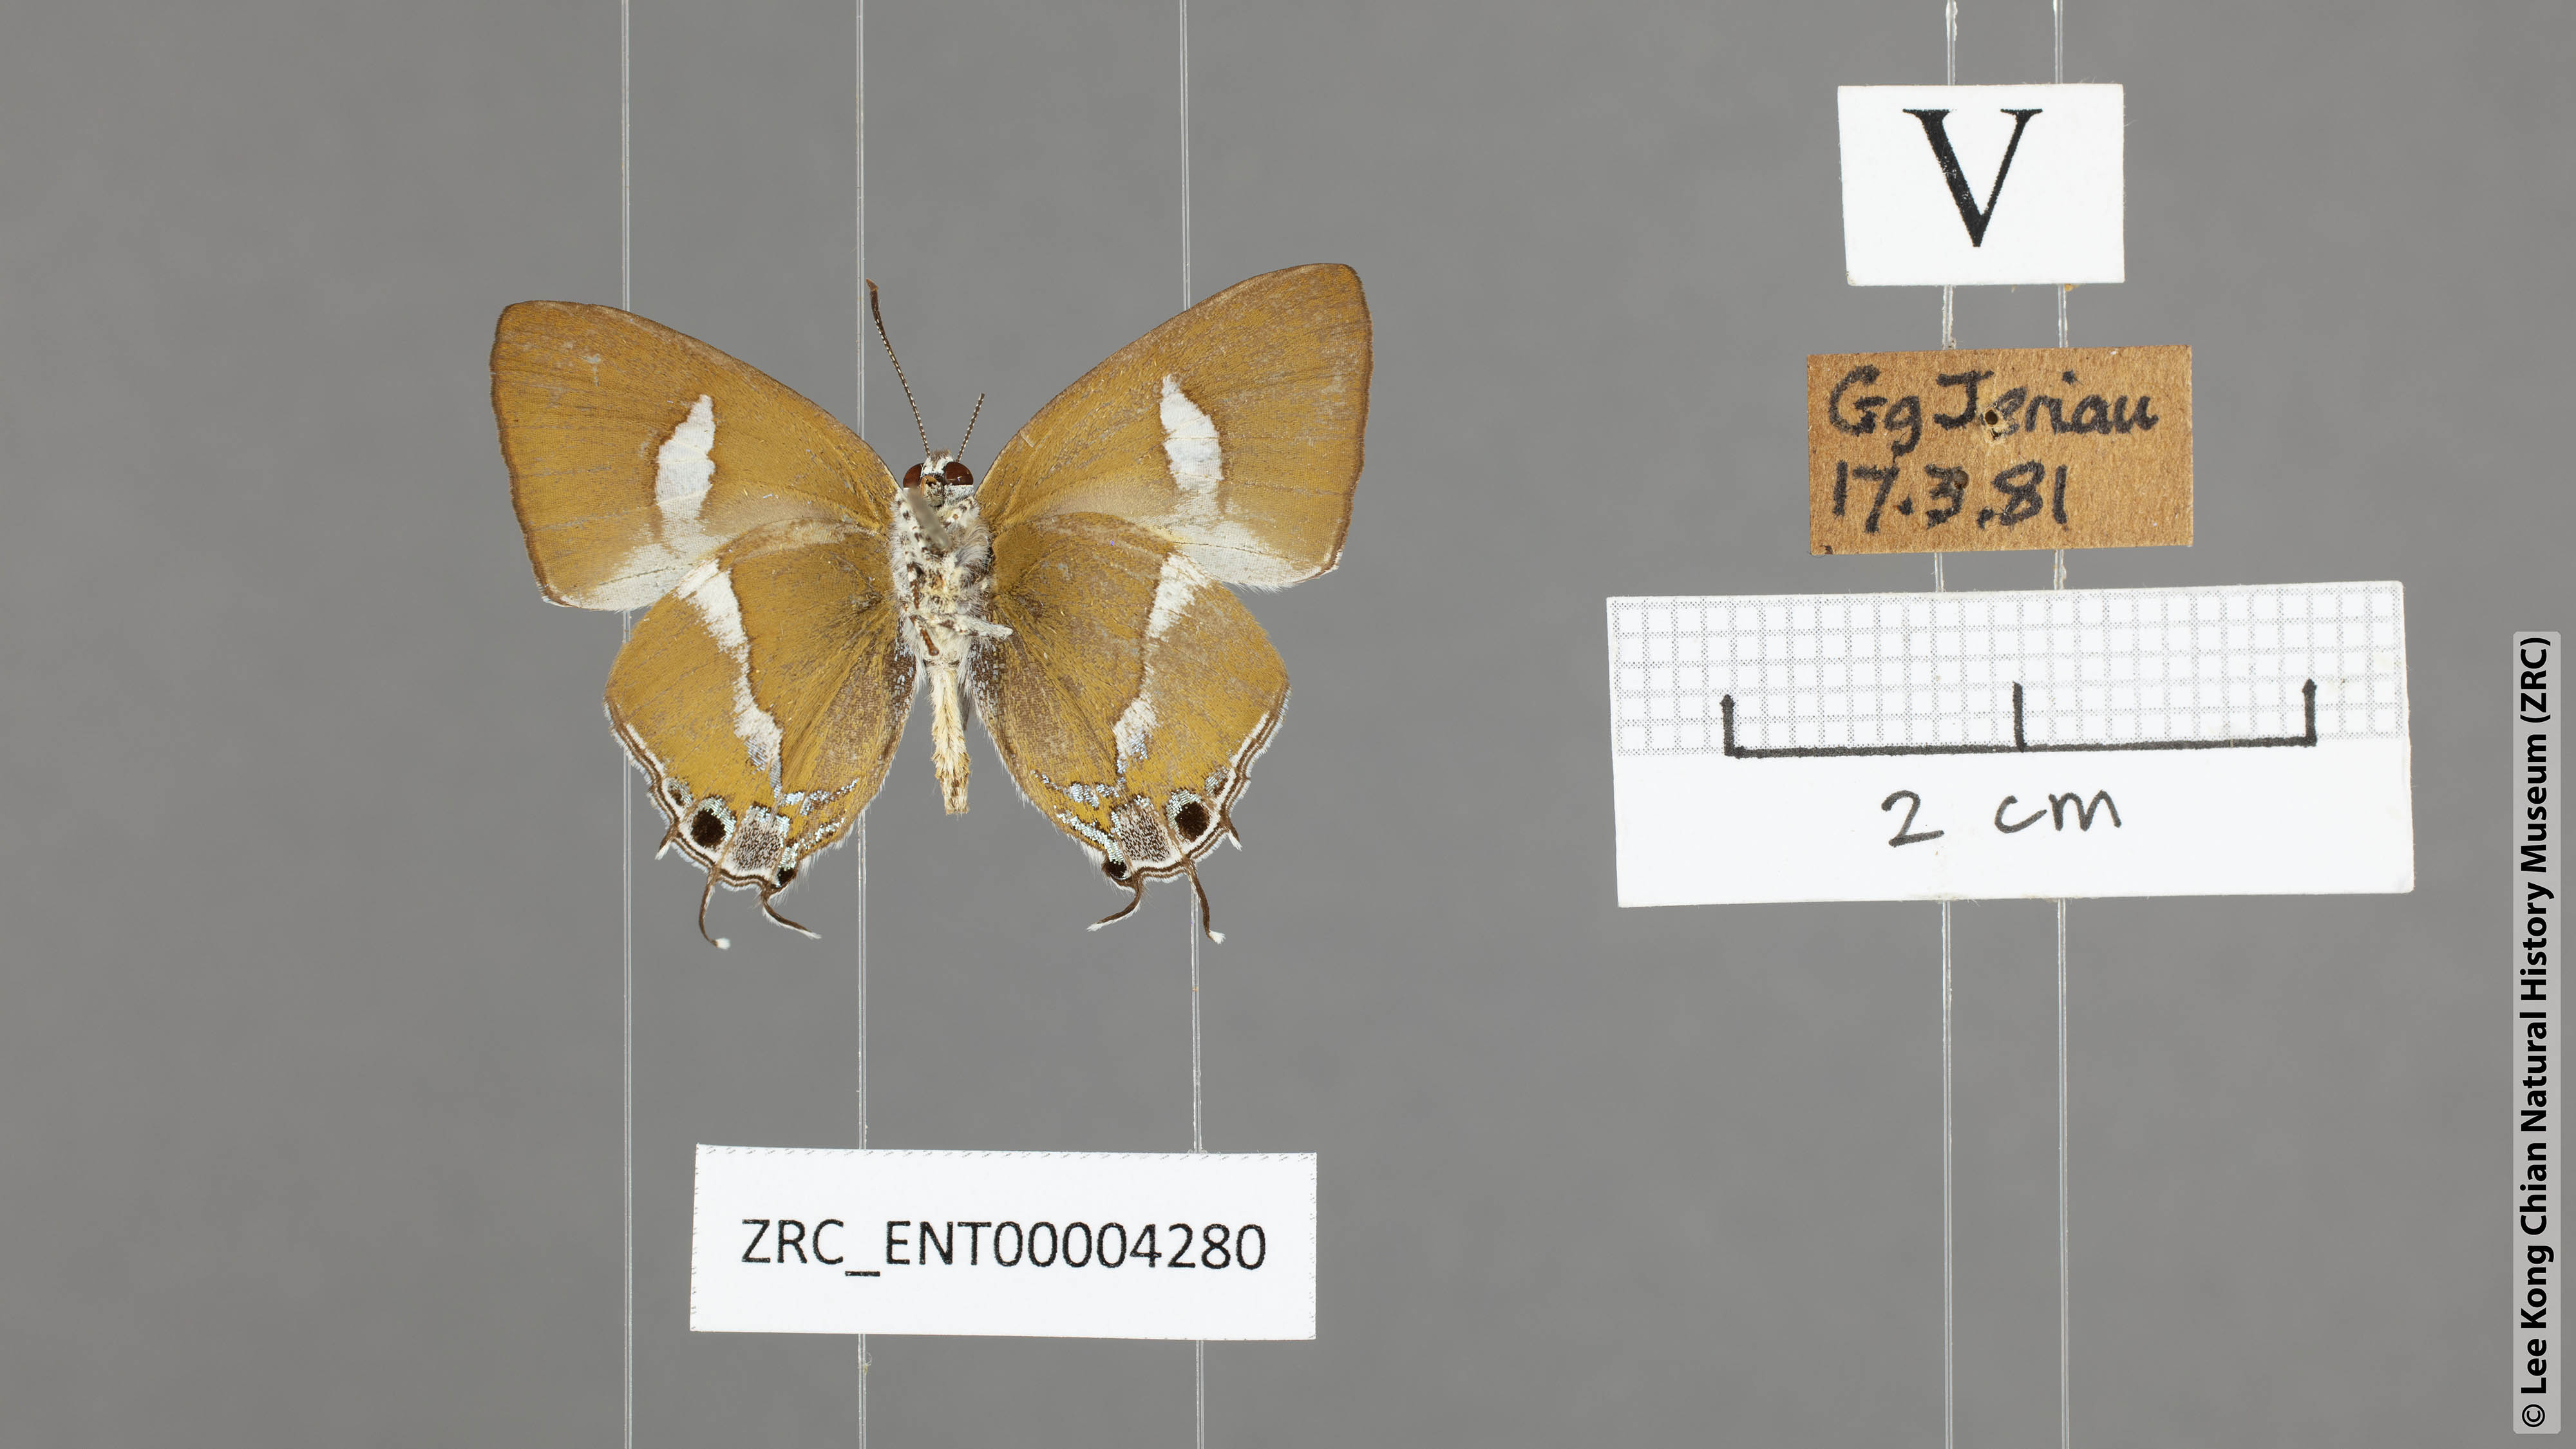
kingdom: Animalia
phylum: Arthropoda
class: Insecta
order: Lepidoptera
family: Lycaenidae
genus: Horaga
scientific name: Horaga syrinx
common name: Ambon onyx
